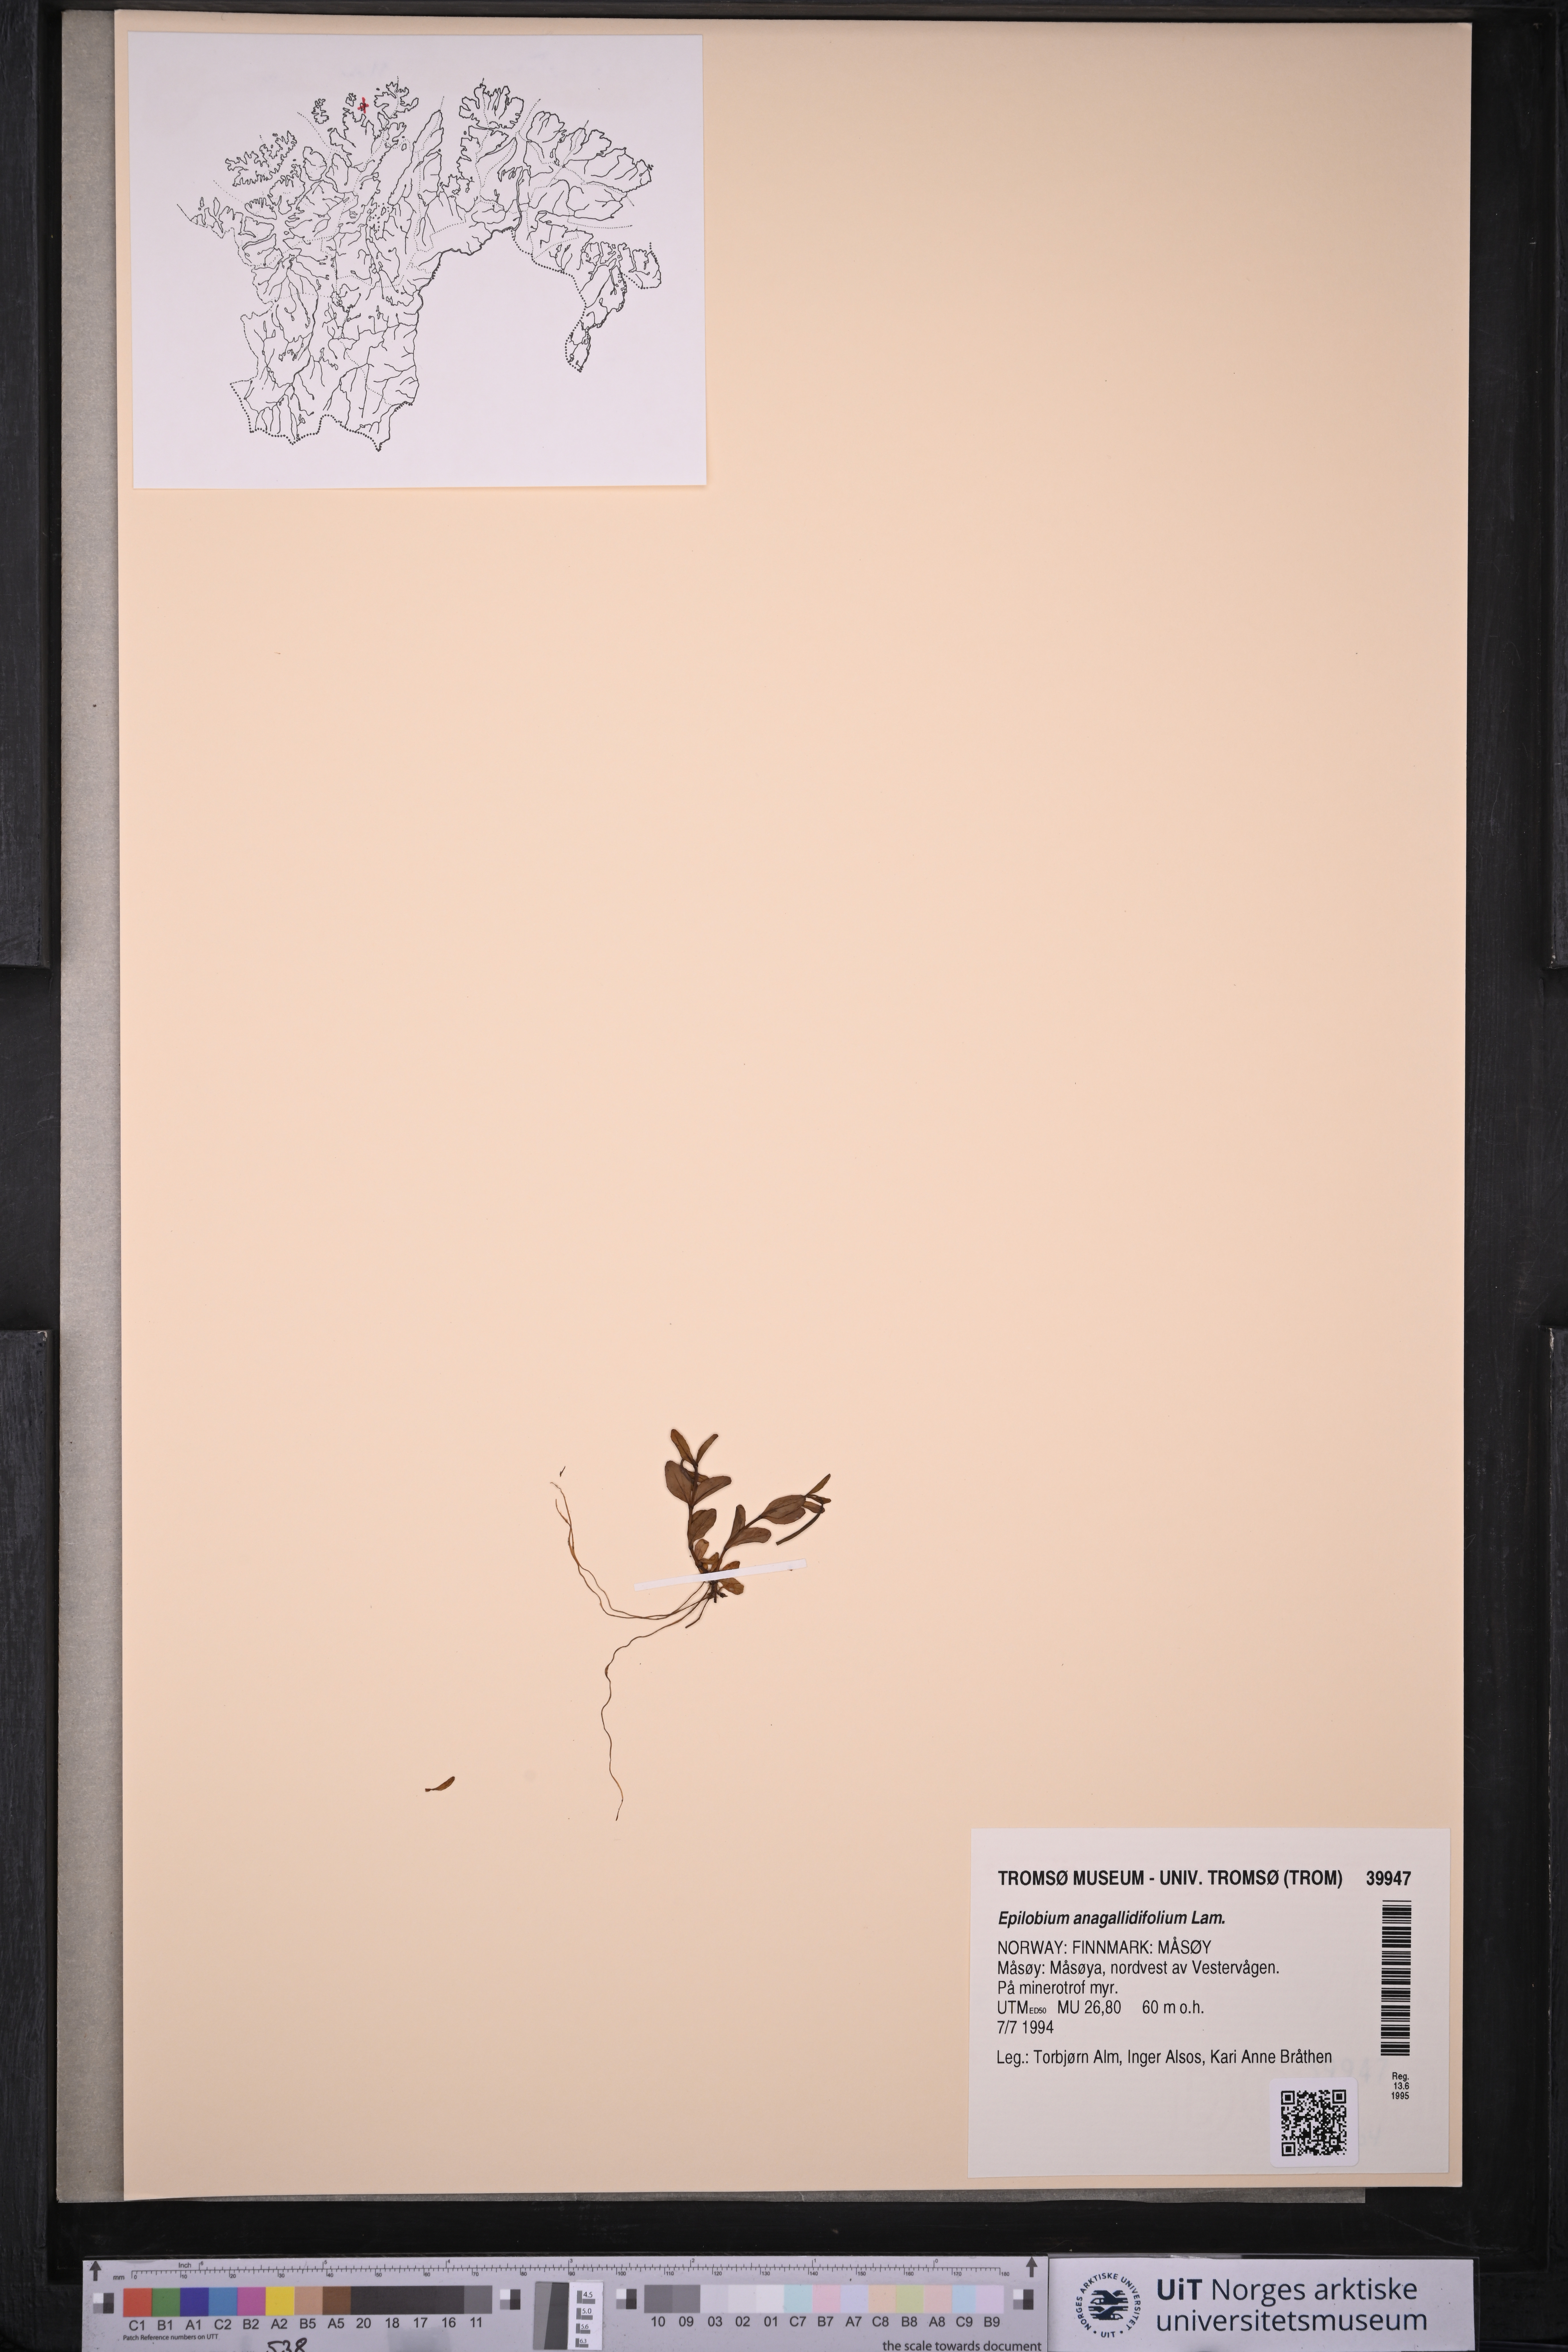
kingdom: Plantae
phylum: Tracheophyta
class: Magnoliopsida
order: Myrtales
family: Onagraceae
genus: Epilobium
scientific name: Epilobium anagallidifolium
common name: Alpine willowherb
